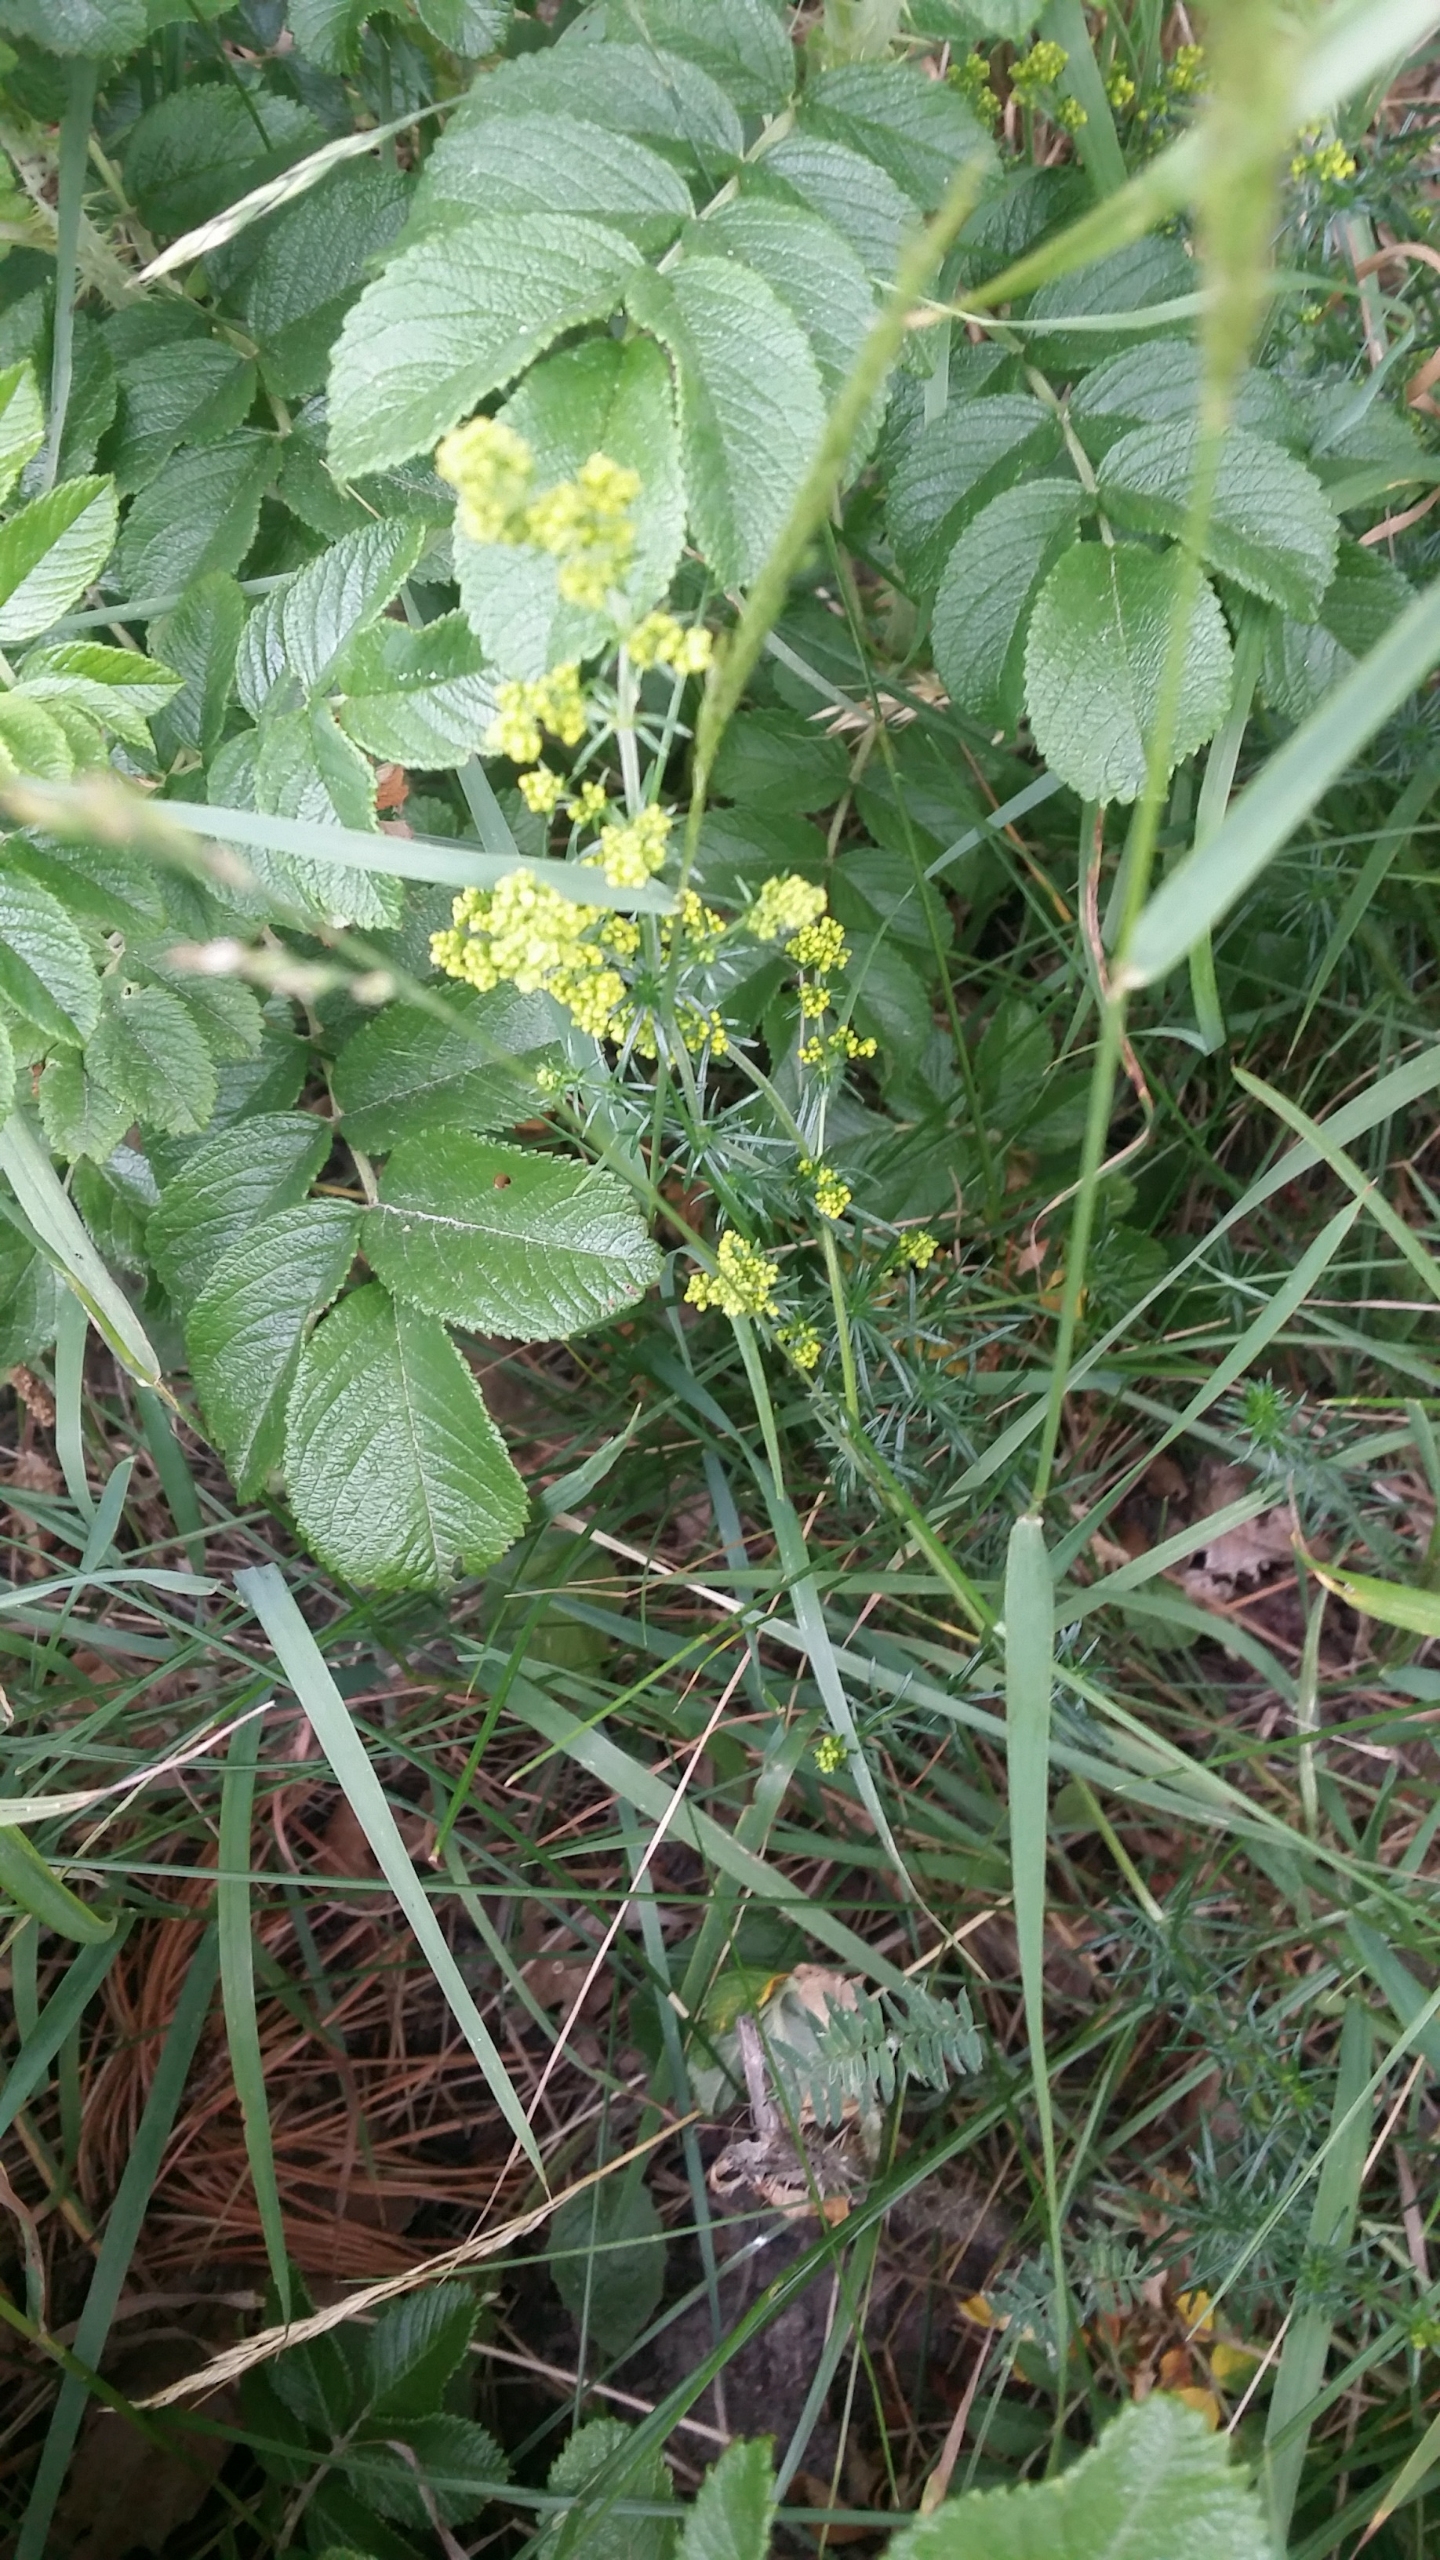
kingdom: Plantae
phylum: Tracheophyta
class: Magnoliopsida
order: Gentianales
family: Rubiaceae
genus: Galium
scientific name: Galium verum
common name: Gul snerre
